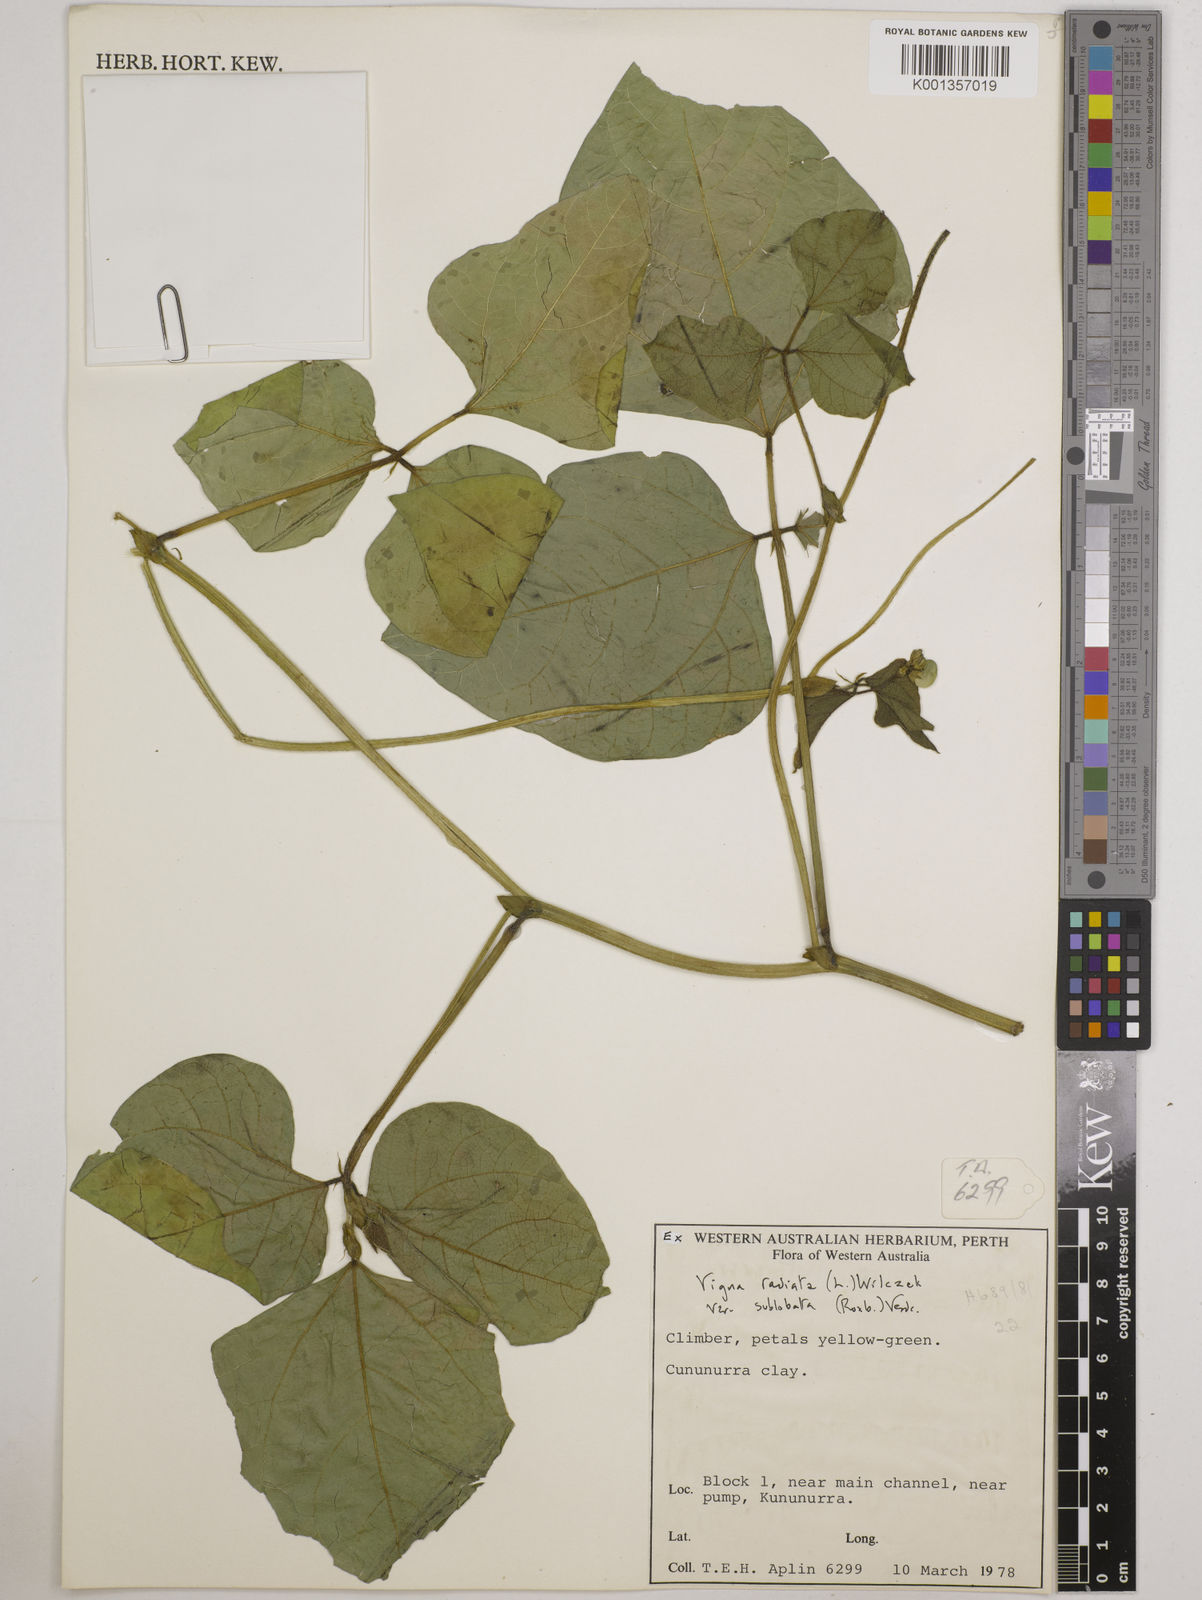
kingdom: Plantae
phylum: Tracheophyta
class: Magnoliopsida
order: Fabales
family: Fabaceae
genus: Vigna
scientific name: Vigna radiata
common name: Mung-bean
